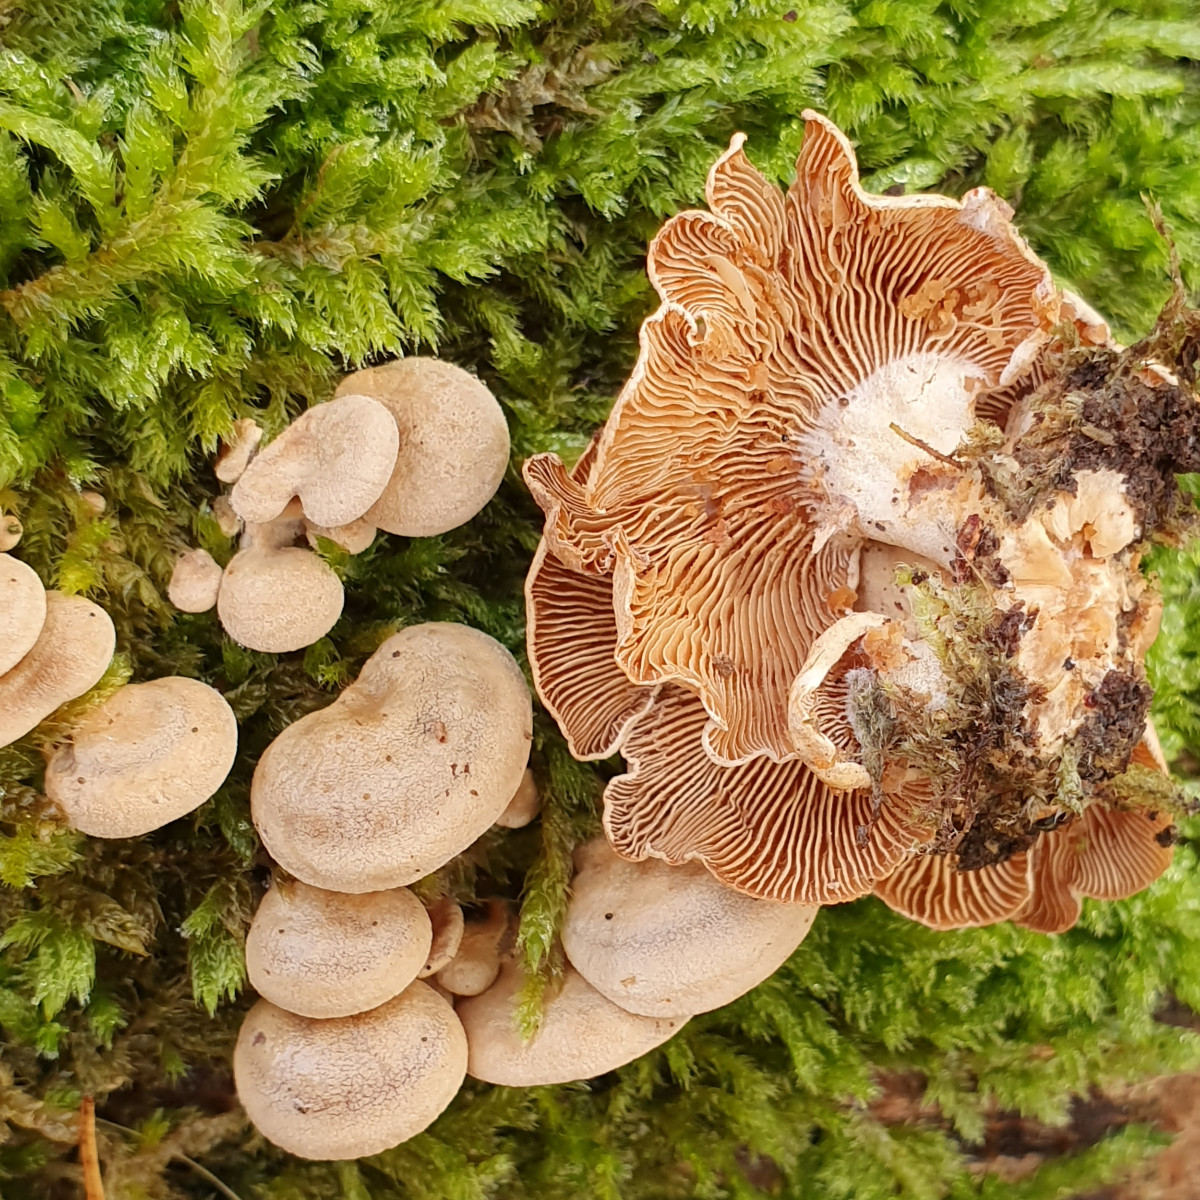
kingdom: Fungi
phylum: Basidiomycota
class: Agaricomycetes
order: Agaricales
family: Mycenaceae
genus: Panellus
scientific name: Panellus stipticus
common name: kliddet epaulethat
